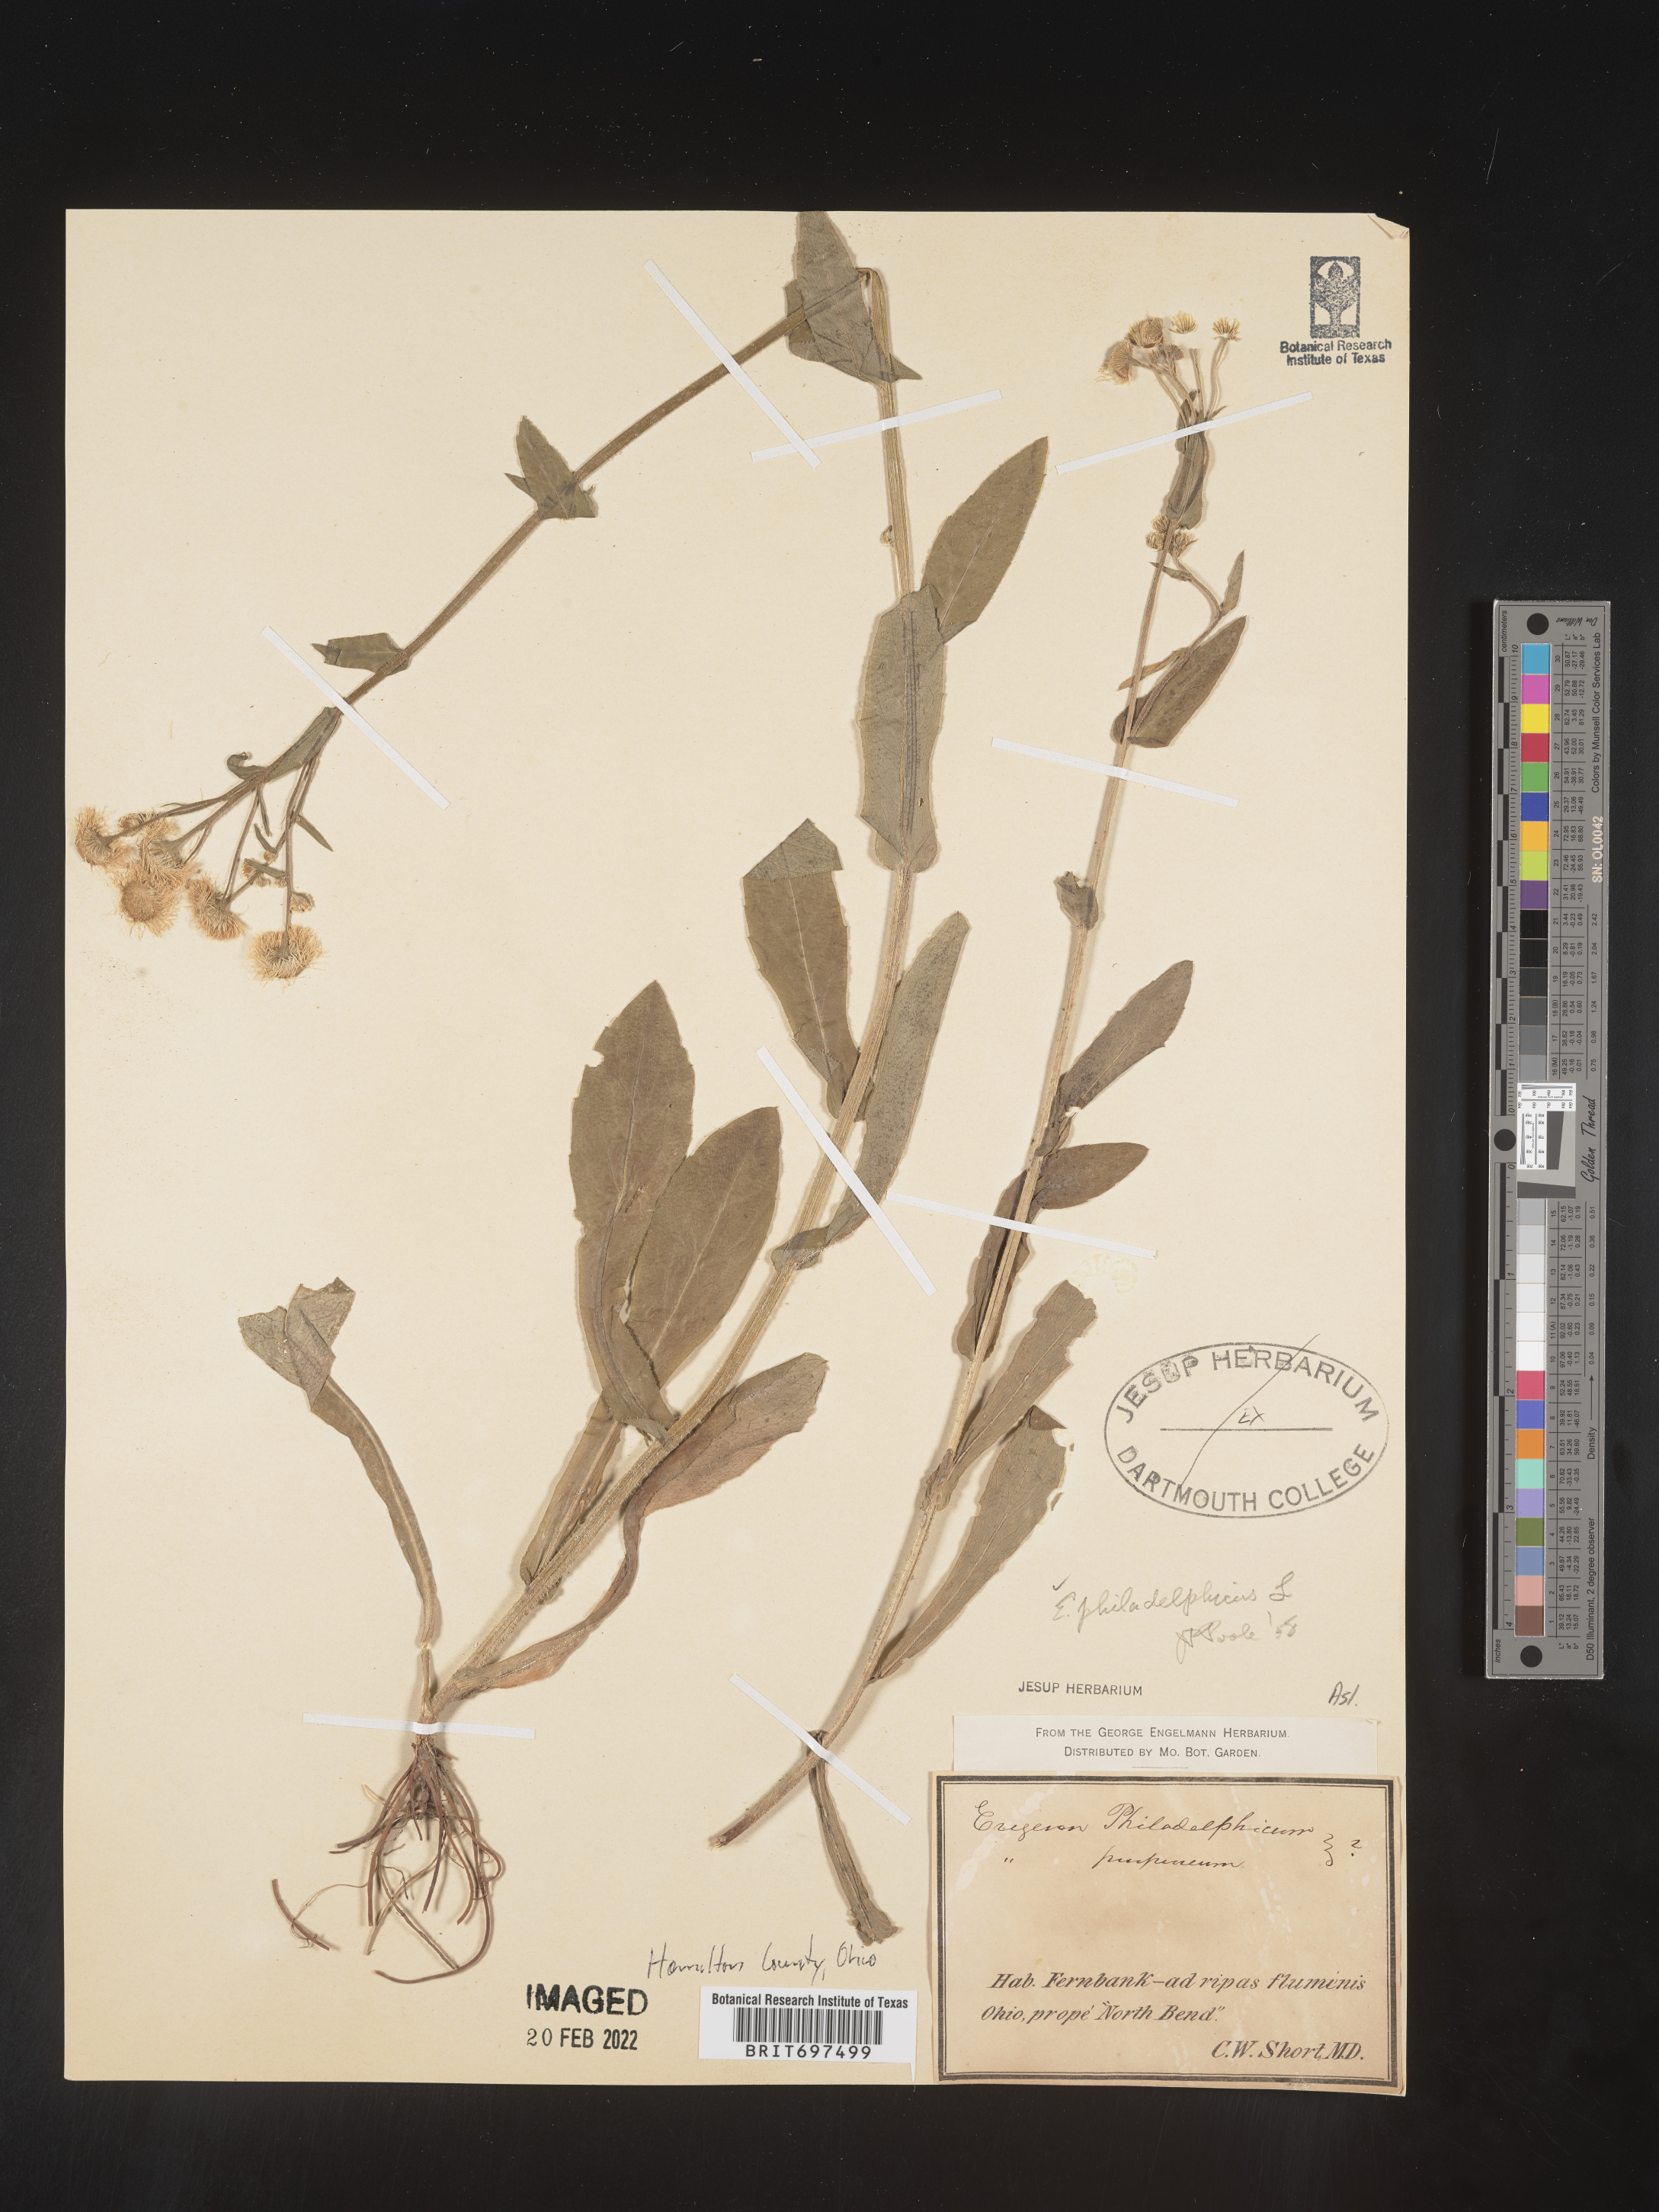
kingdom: Plantae
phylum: Tracheophyta
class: Magnoliopsida
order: Asterales
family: Asteraceae
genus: Erigeron
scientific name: Erigeron philadelphicus
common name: Robin's-plantain
